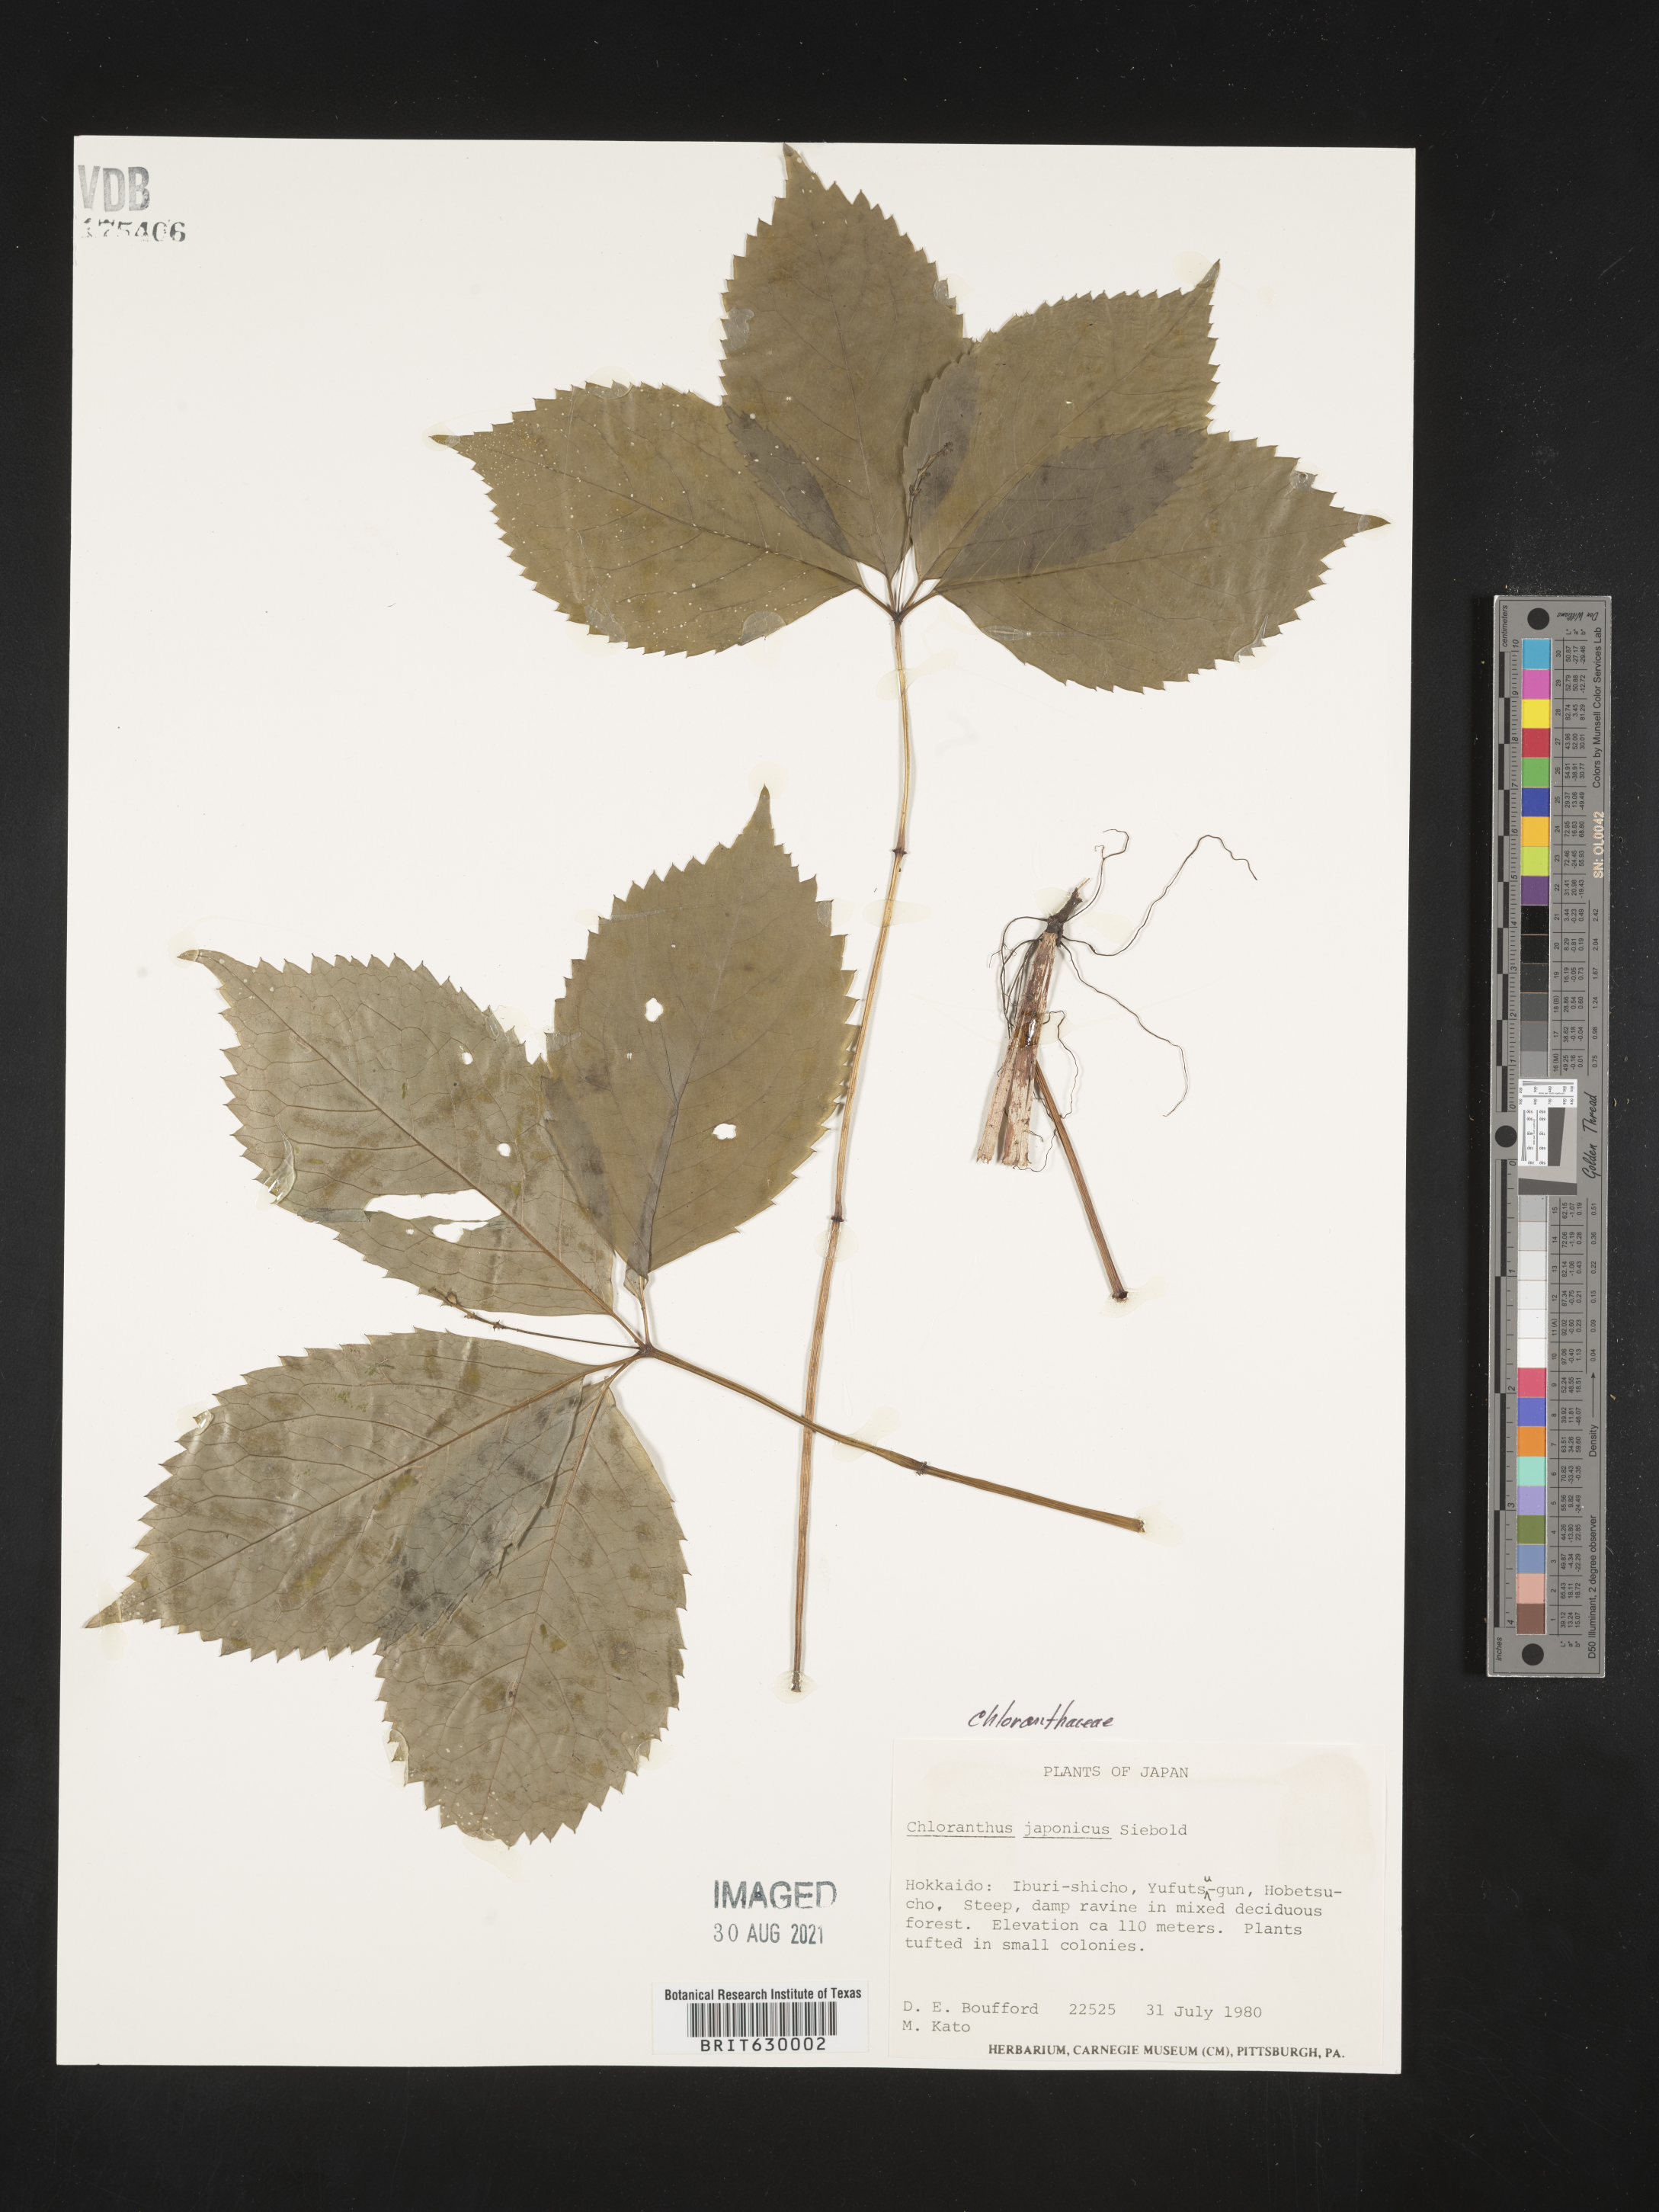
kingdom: Plantae
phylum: Tracheophyta
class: Magnoliopsida
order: Chloranthales
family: Chloranthaceae
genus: Chloranthus
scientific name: Chloranthus
